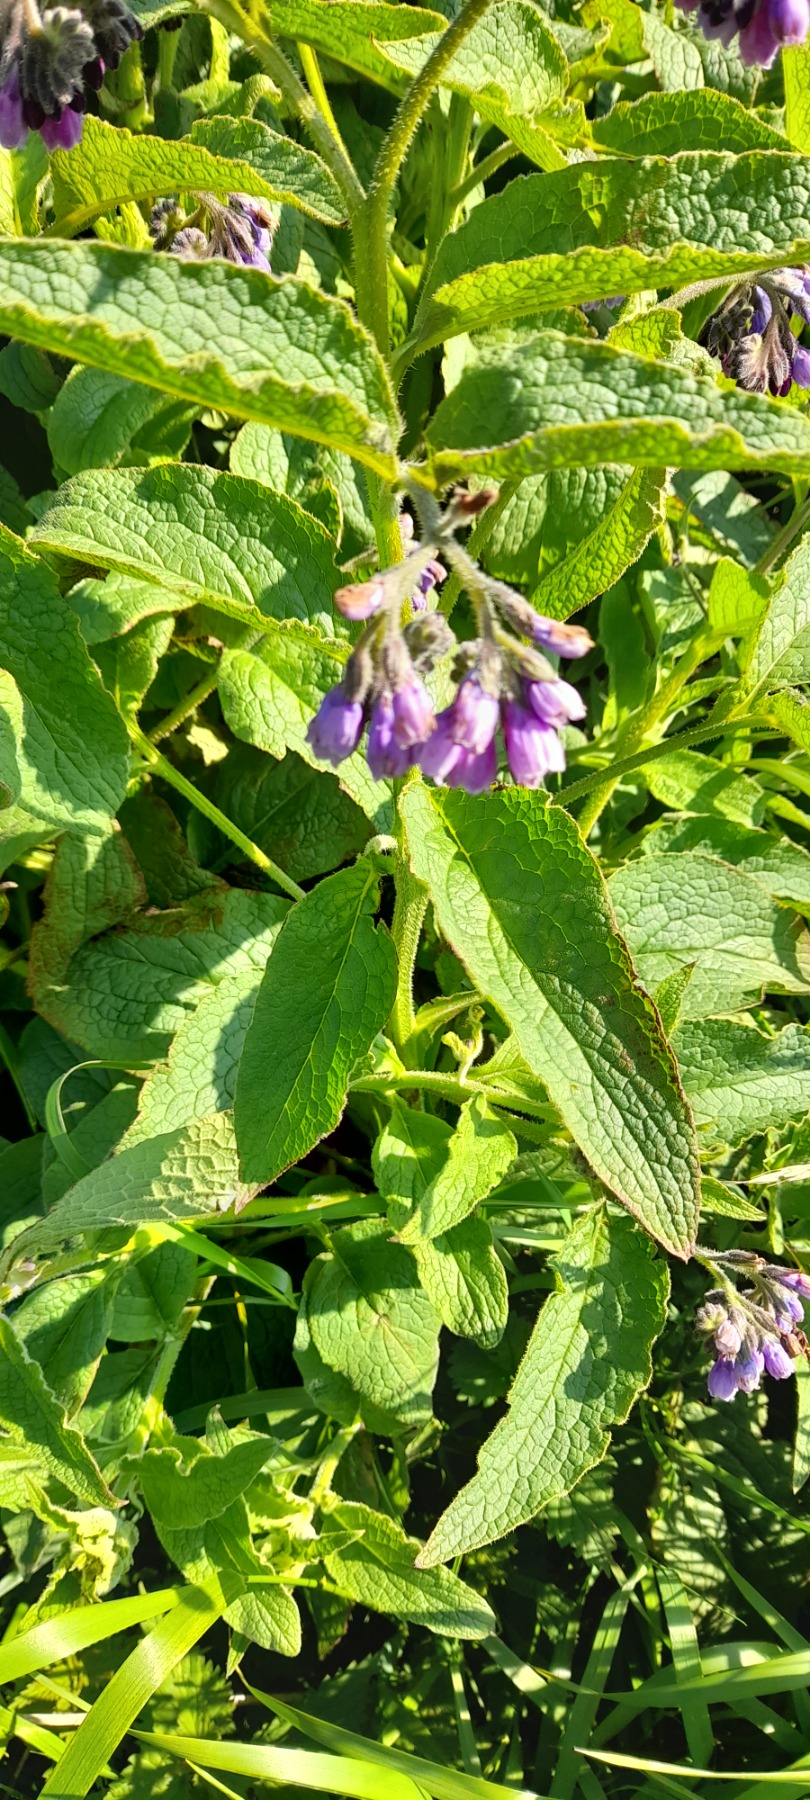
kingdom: Plantae
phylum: Tracheophyta
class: Magnoliopsida
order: Boraginales
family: Boraginaceae
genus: Symphytum
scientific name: Symphytum uplandicum
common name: Foder-kulsukker
